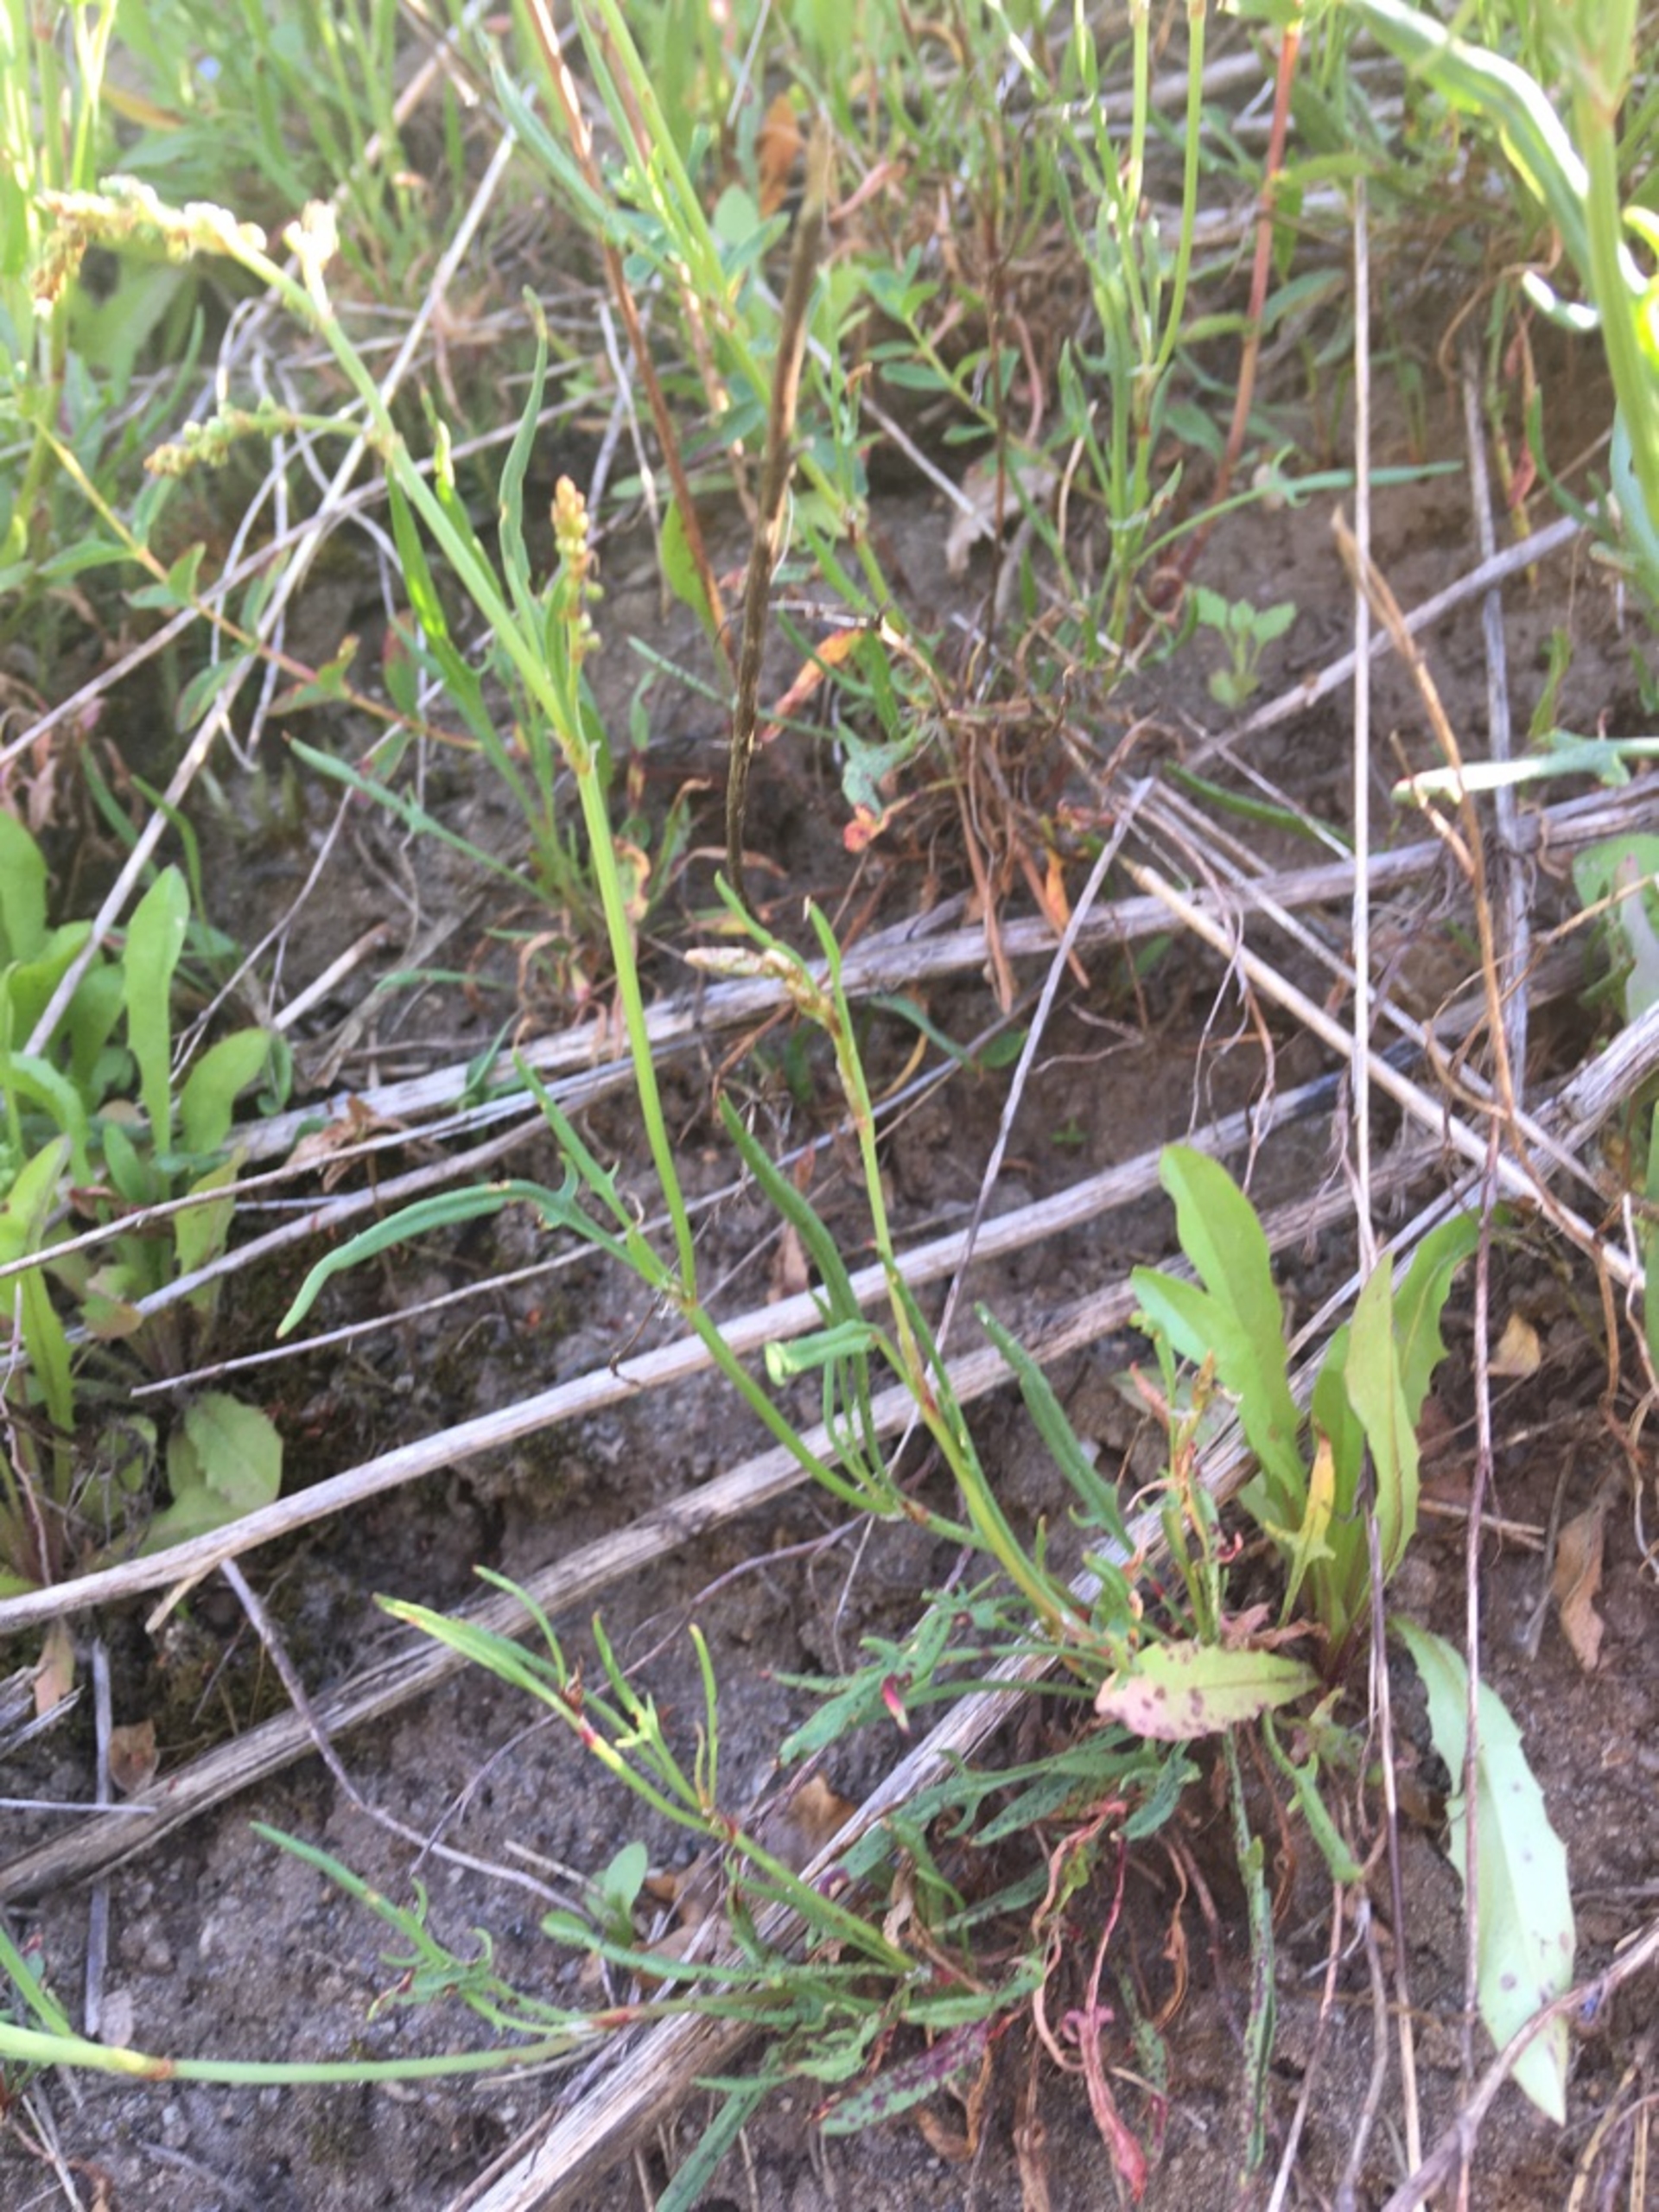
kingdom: Plantae
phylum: Tracheophyta
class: Magnoliopsida
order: Caryophyllales
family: Polygonaceae
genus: Rumex
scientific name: Rumex acetosella
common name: Rødknæ
